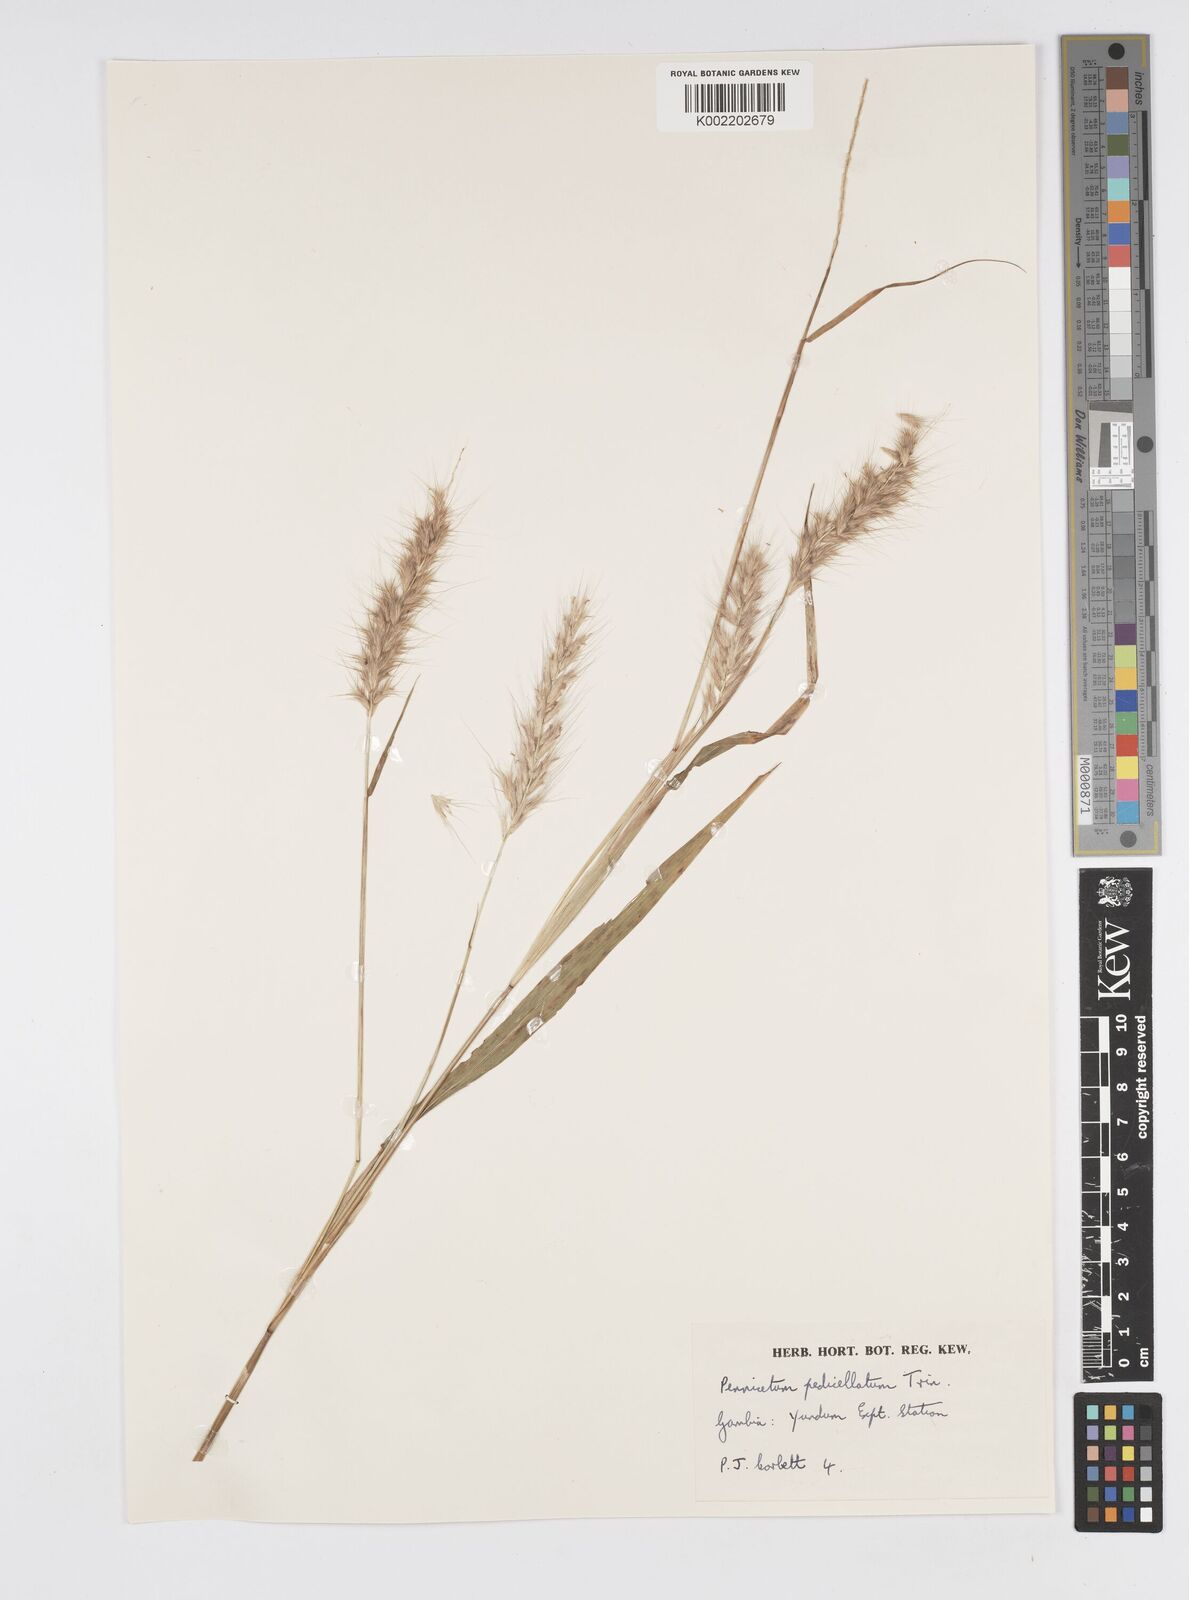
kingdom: Plantae
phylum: Tracheophyta
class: Liliopsida
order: Poales
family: Poaceae
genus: Cenchrus
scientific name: Cenchrus pedicellatus
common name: Hairy fountain grass
